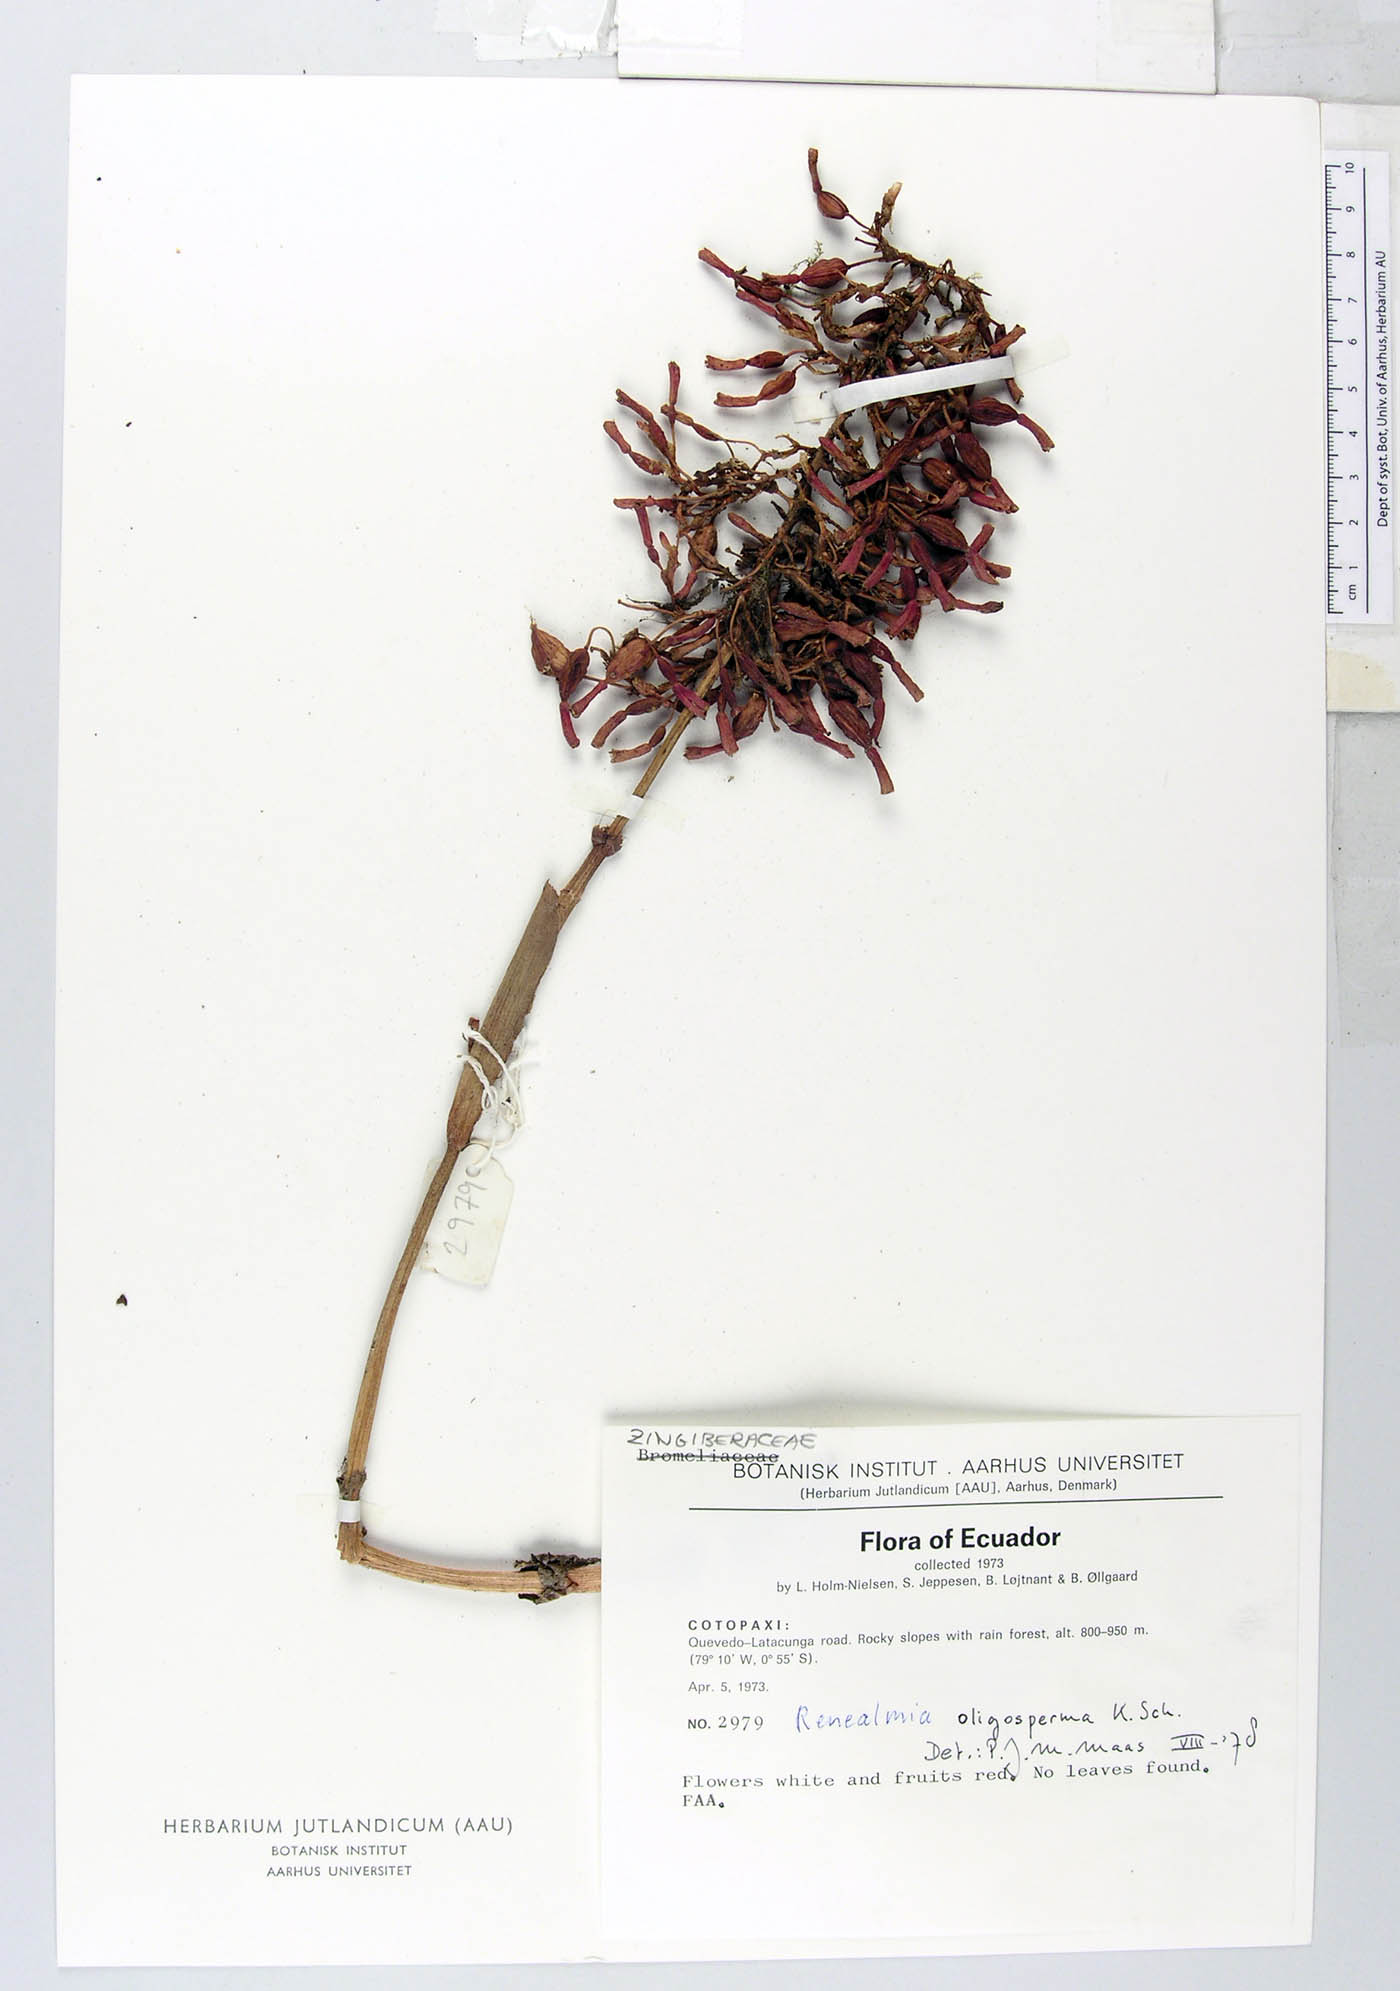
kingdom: Plantae
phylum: Tracheophyta
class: Liliopsida
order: Zingiberales
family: Zingiberaceae
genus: Renealmia
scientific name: Renealmia oligosperma
